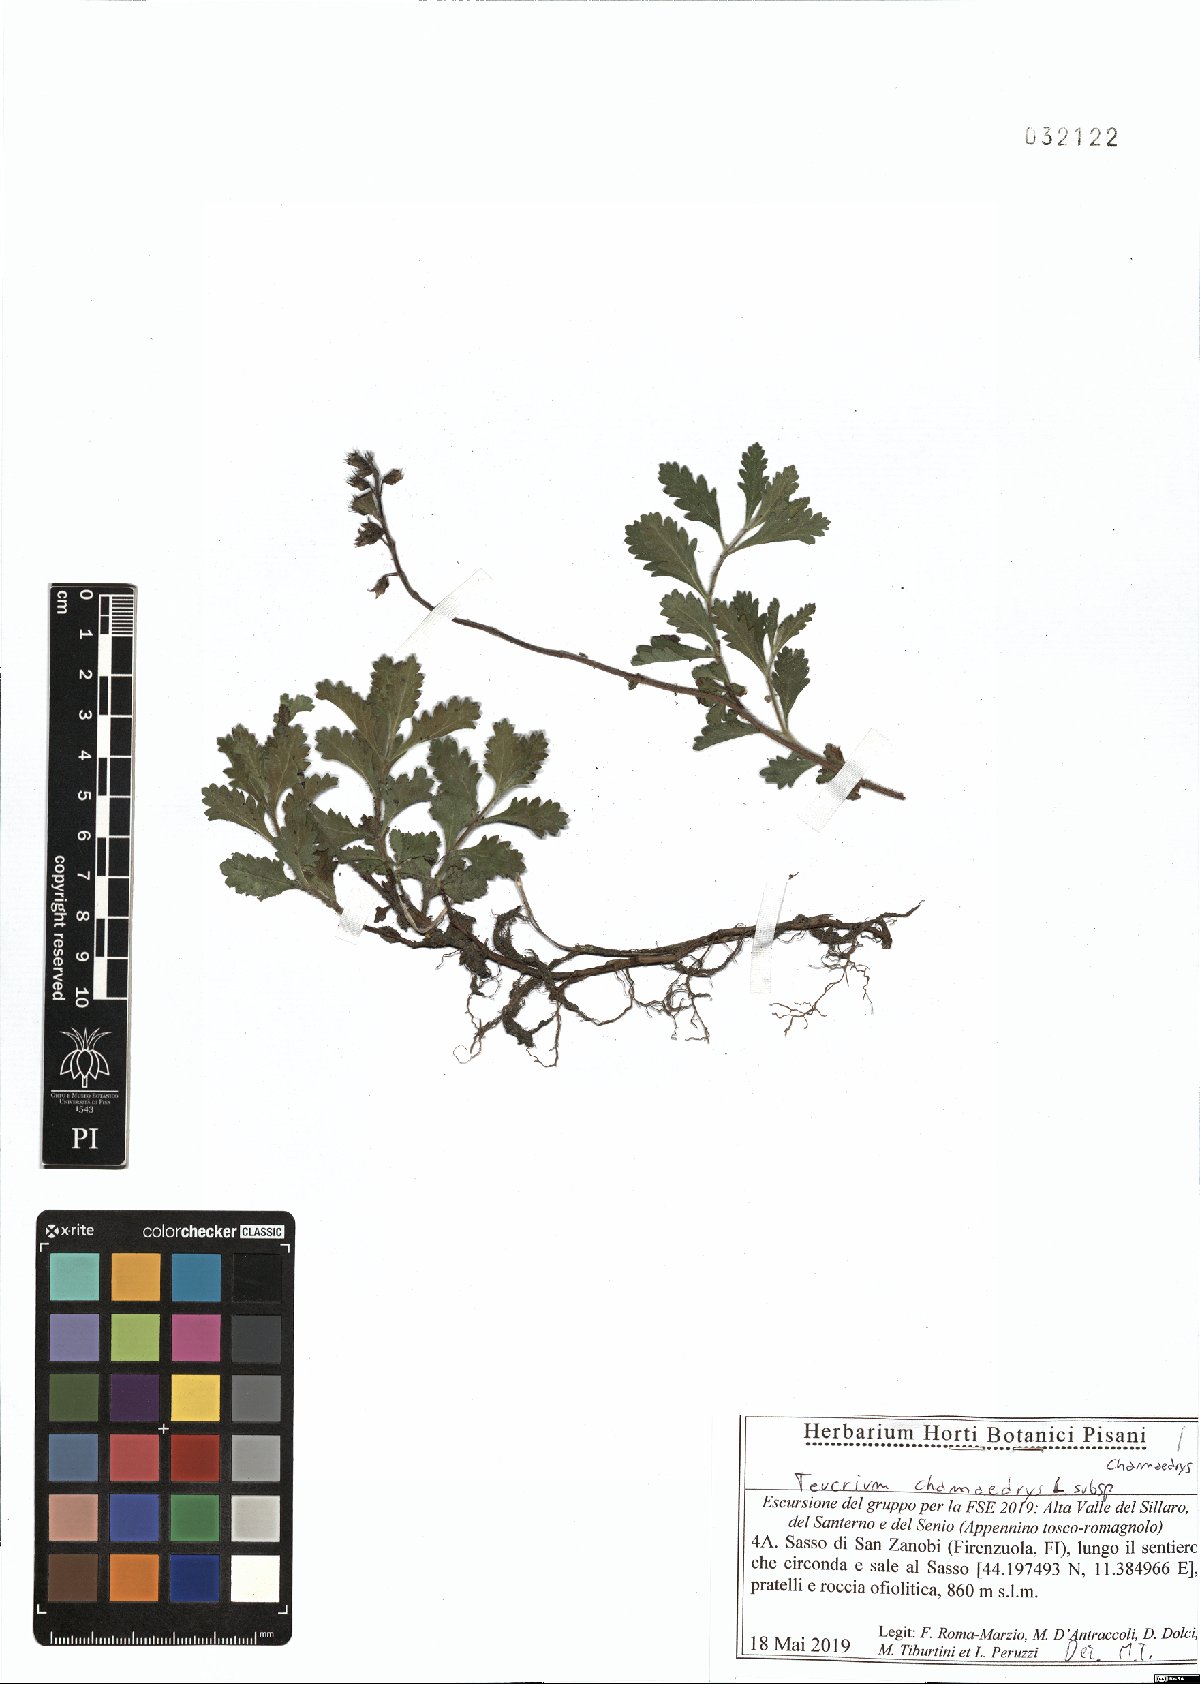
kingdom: Plantae
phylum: Tracheophyta
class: Magnoliopsida
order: Lamiales
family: Lamiaceae
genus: Teucrium
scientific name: Teucrium chamaedrys
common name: Wall germander
